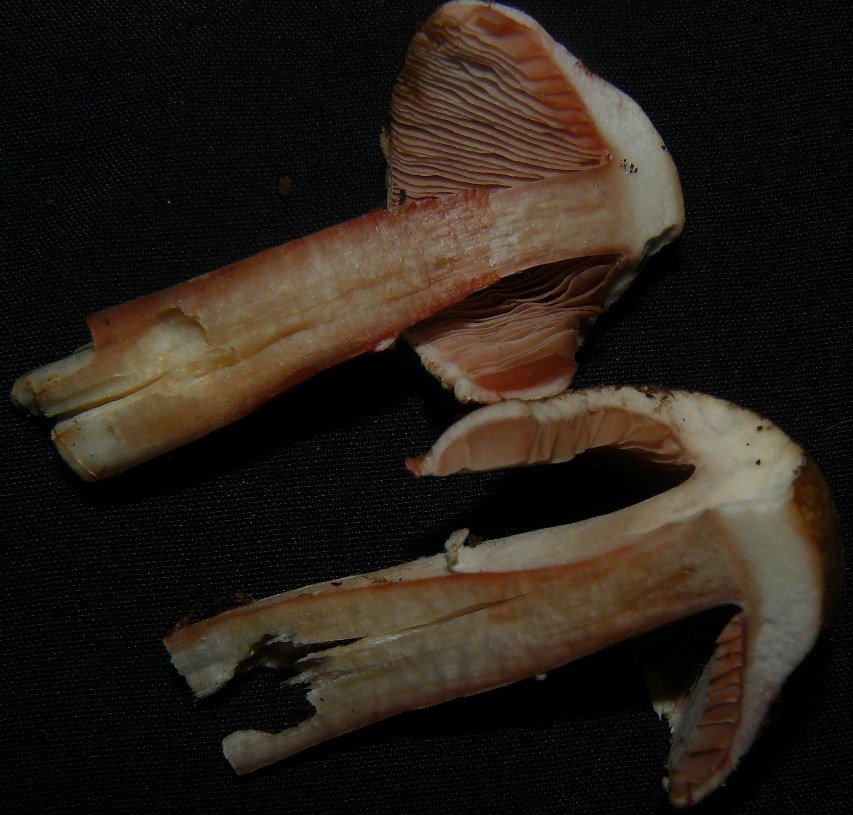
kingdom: Fungi
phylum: Basidiomycota
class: Agaricomycetes
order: Agaricales
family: Agaricaceae
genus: Agaricus
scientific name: Agaricus langei
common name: stor blod-champignon
